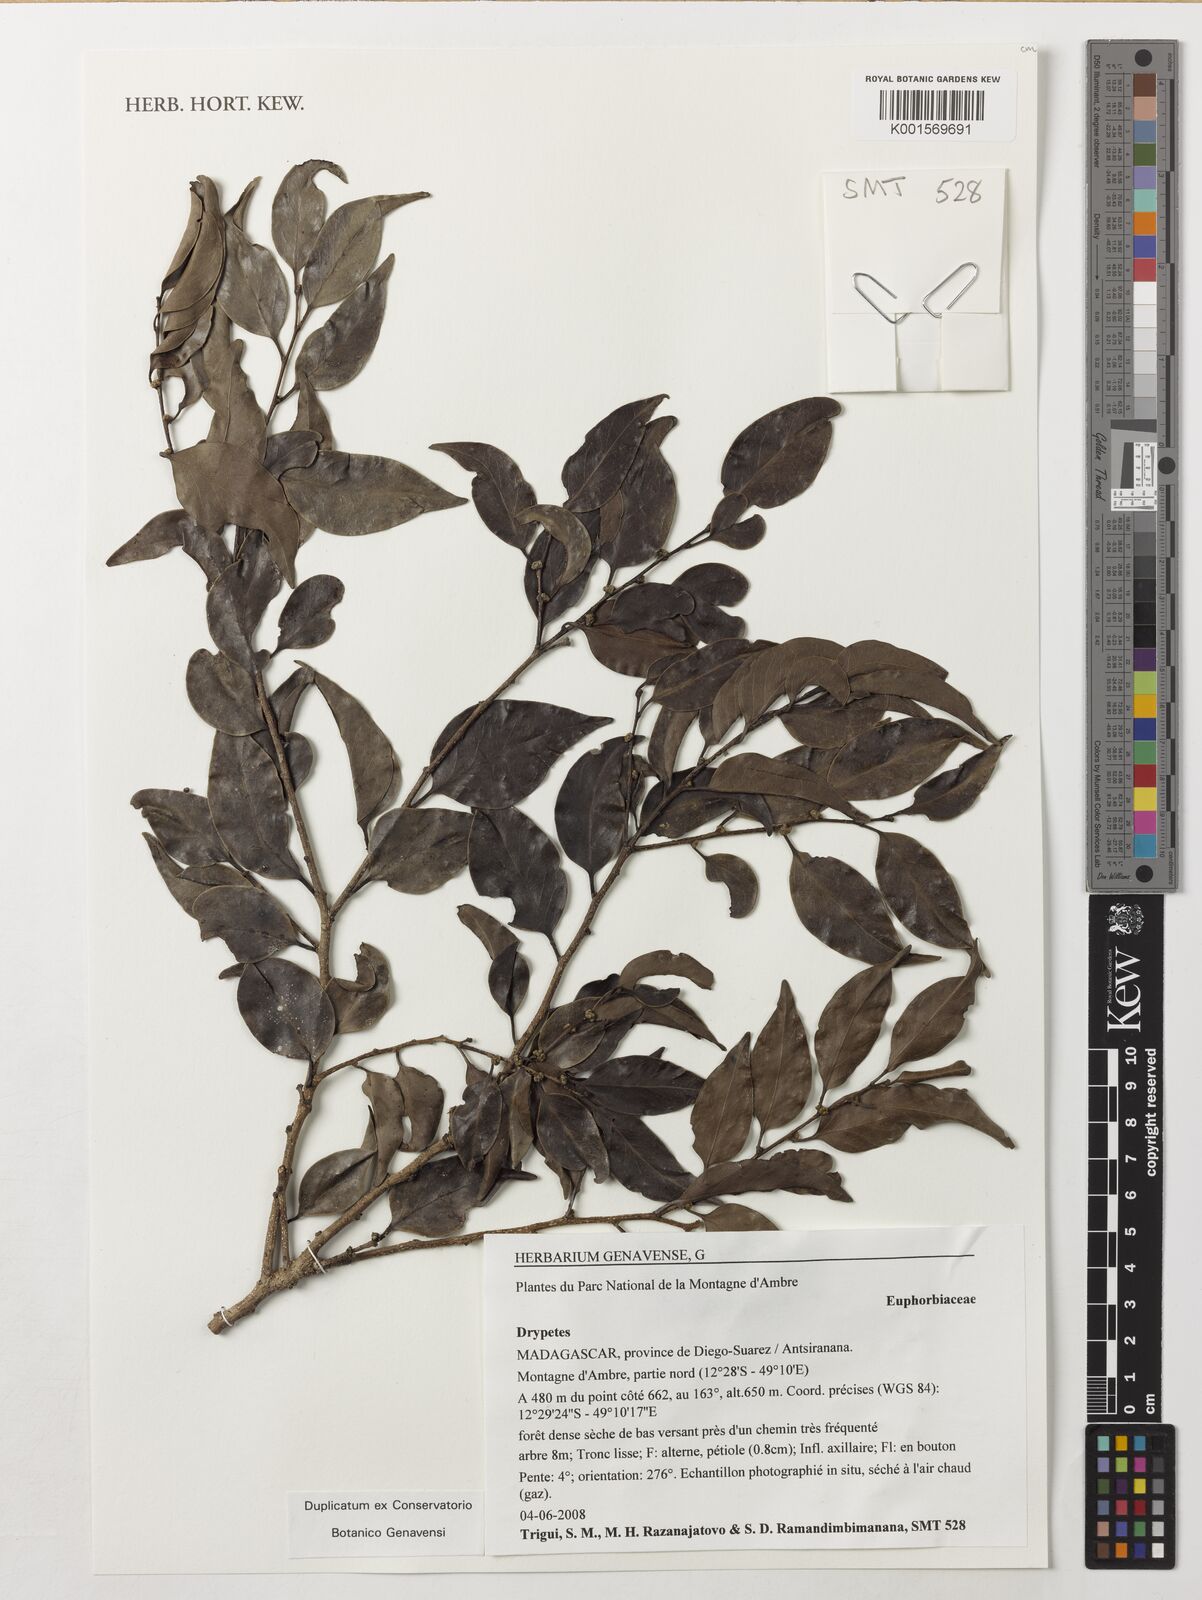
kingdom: Plantae
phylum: Tracheophyta
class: Magnoliopsida
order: Malpighiales
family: Putranjivaceae
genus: Drypetes
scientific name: Drypetes
